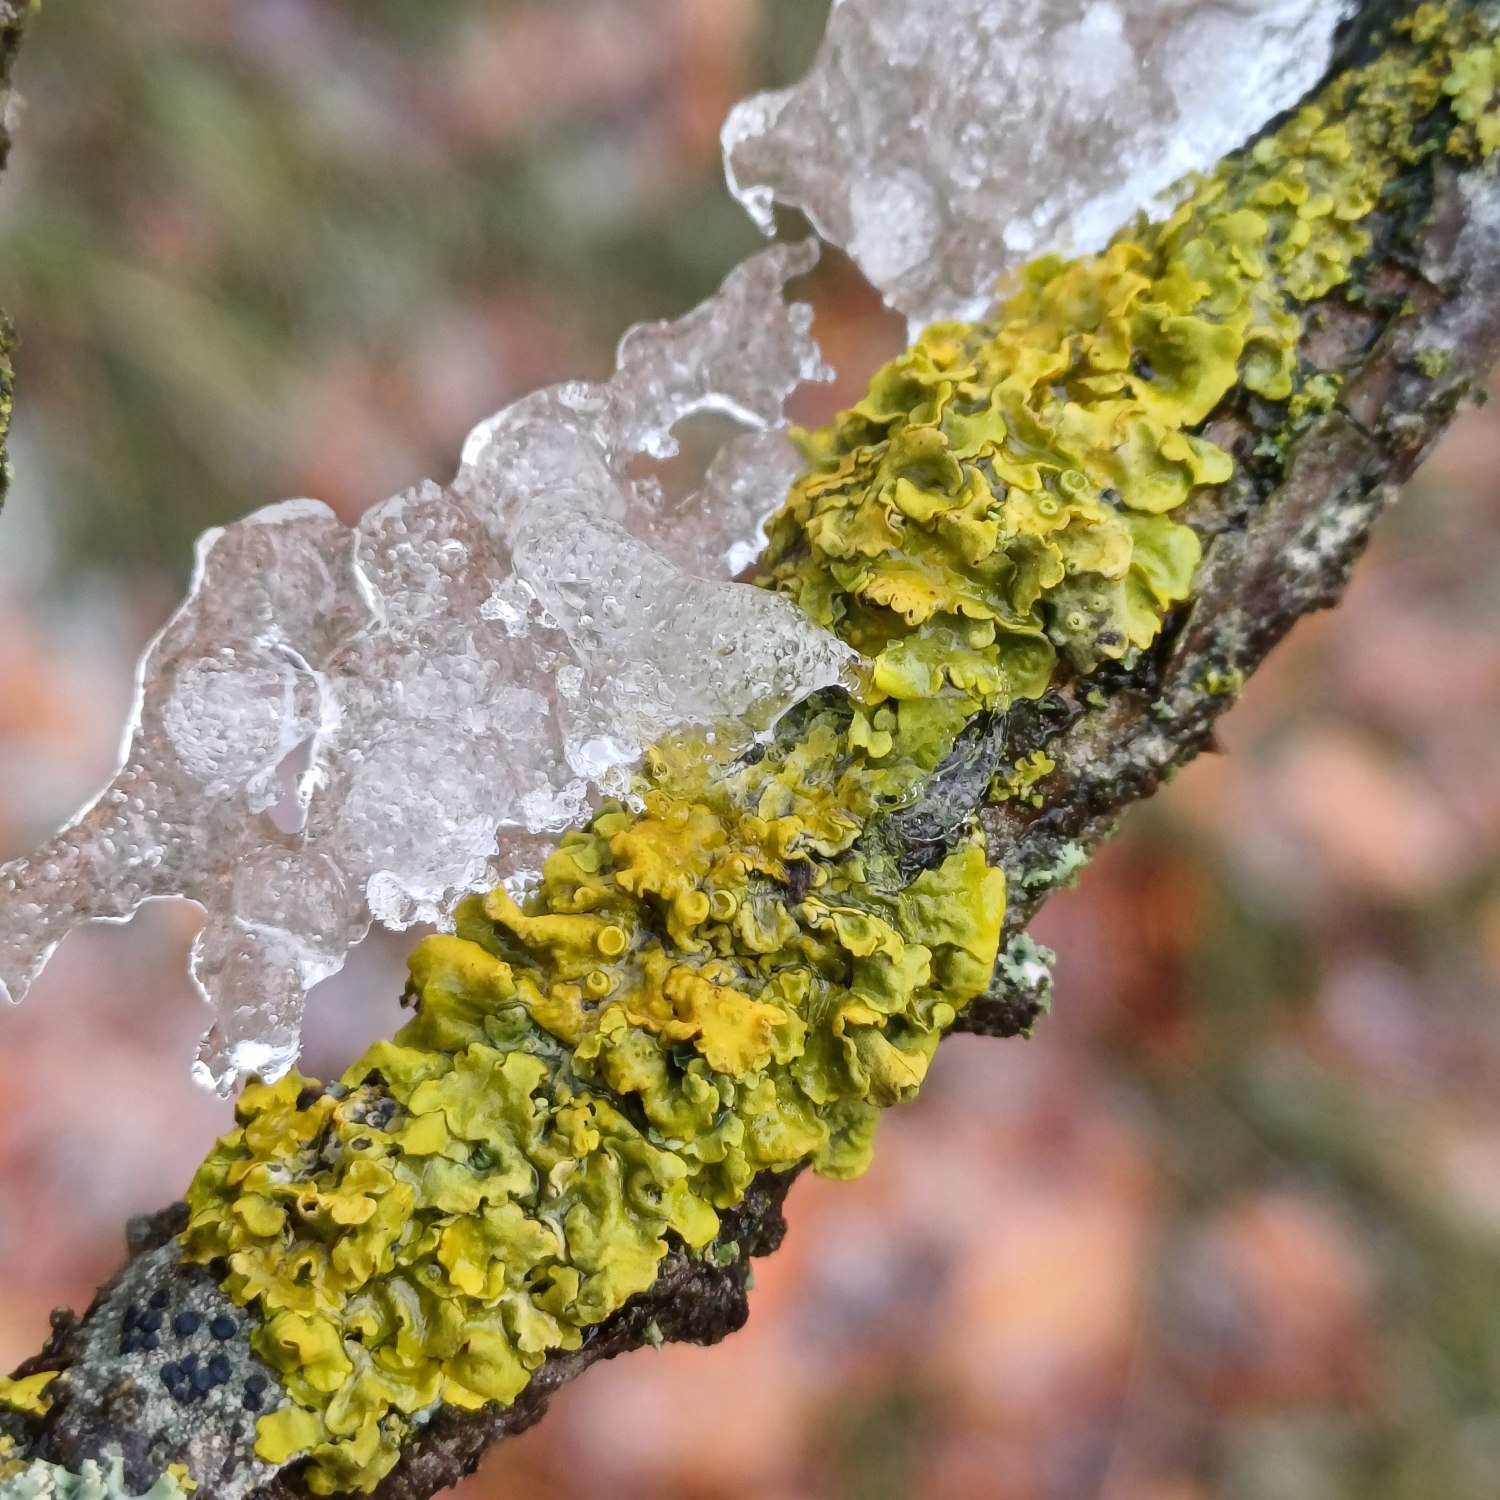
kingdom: Fungi
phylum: Ascomycota
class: Lecanoromycetes
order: Teloschistales
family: Teloschistaceae
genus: Xanthoria
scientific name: Xanthoria parietina
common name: Almindelig væggelav
